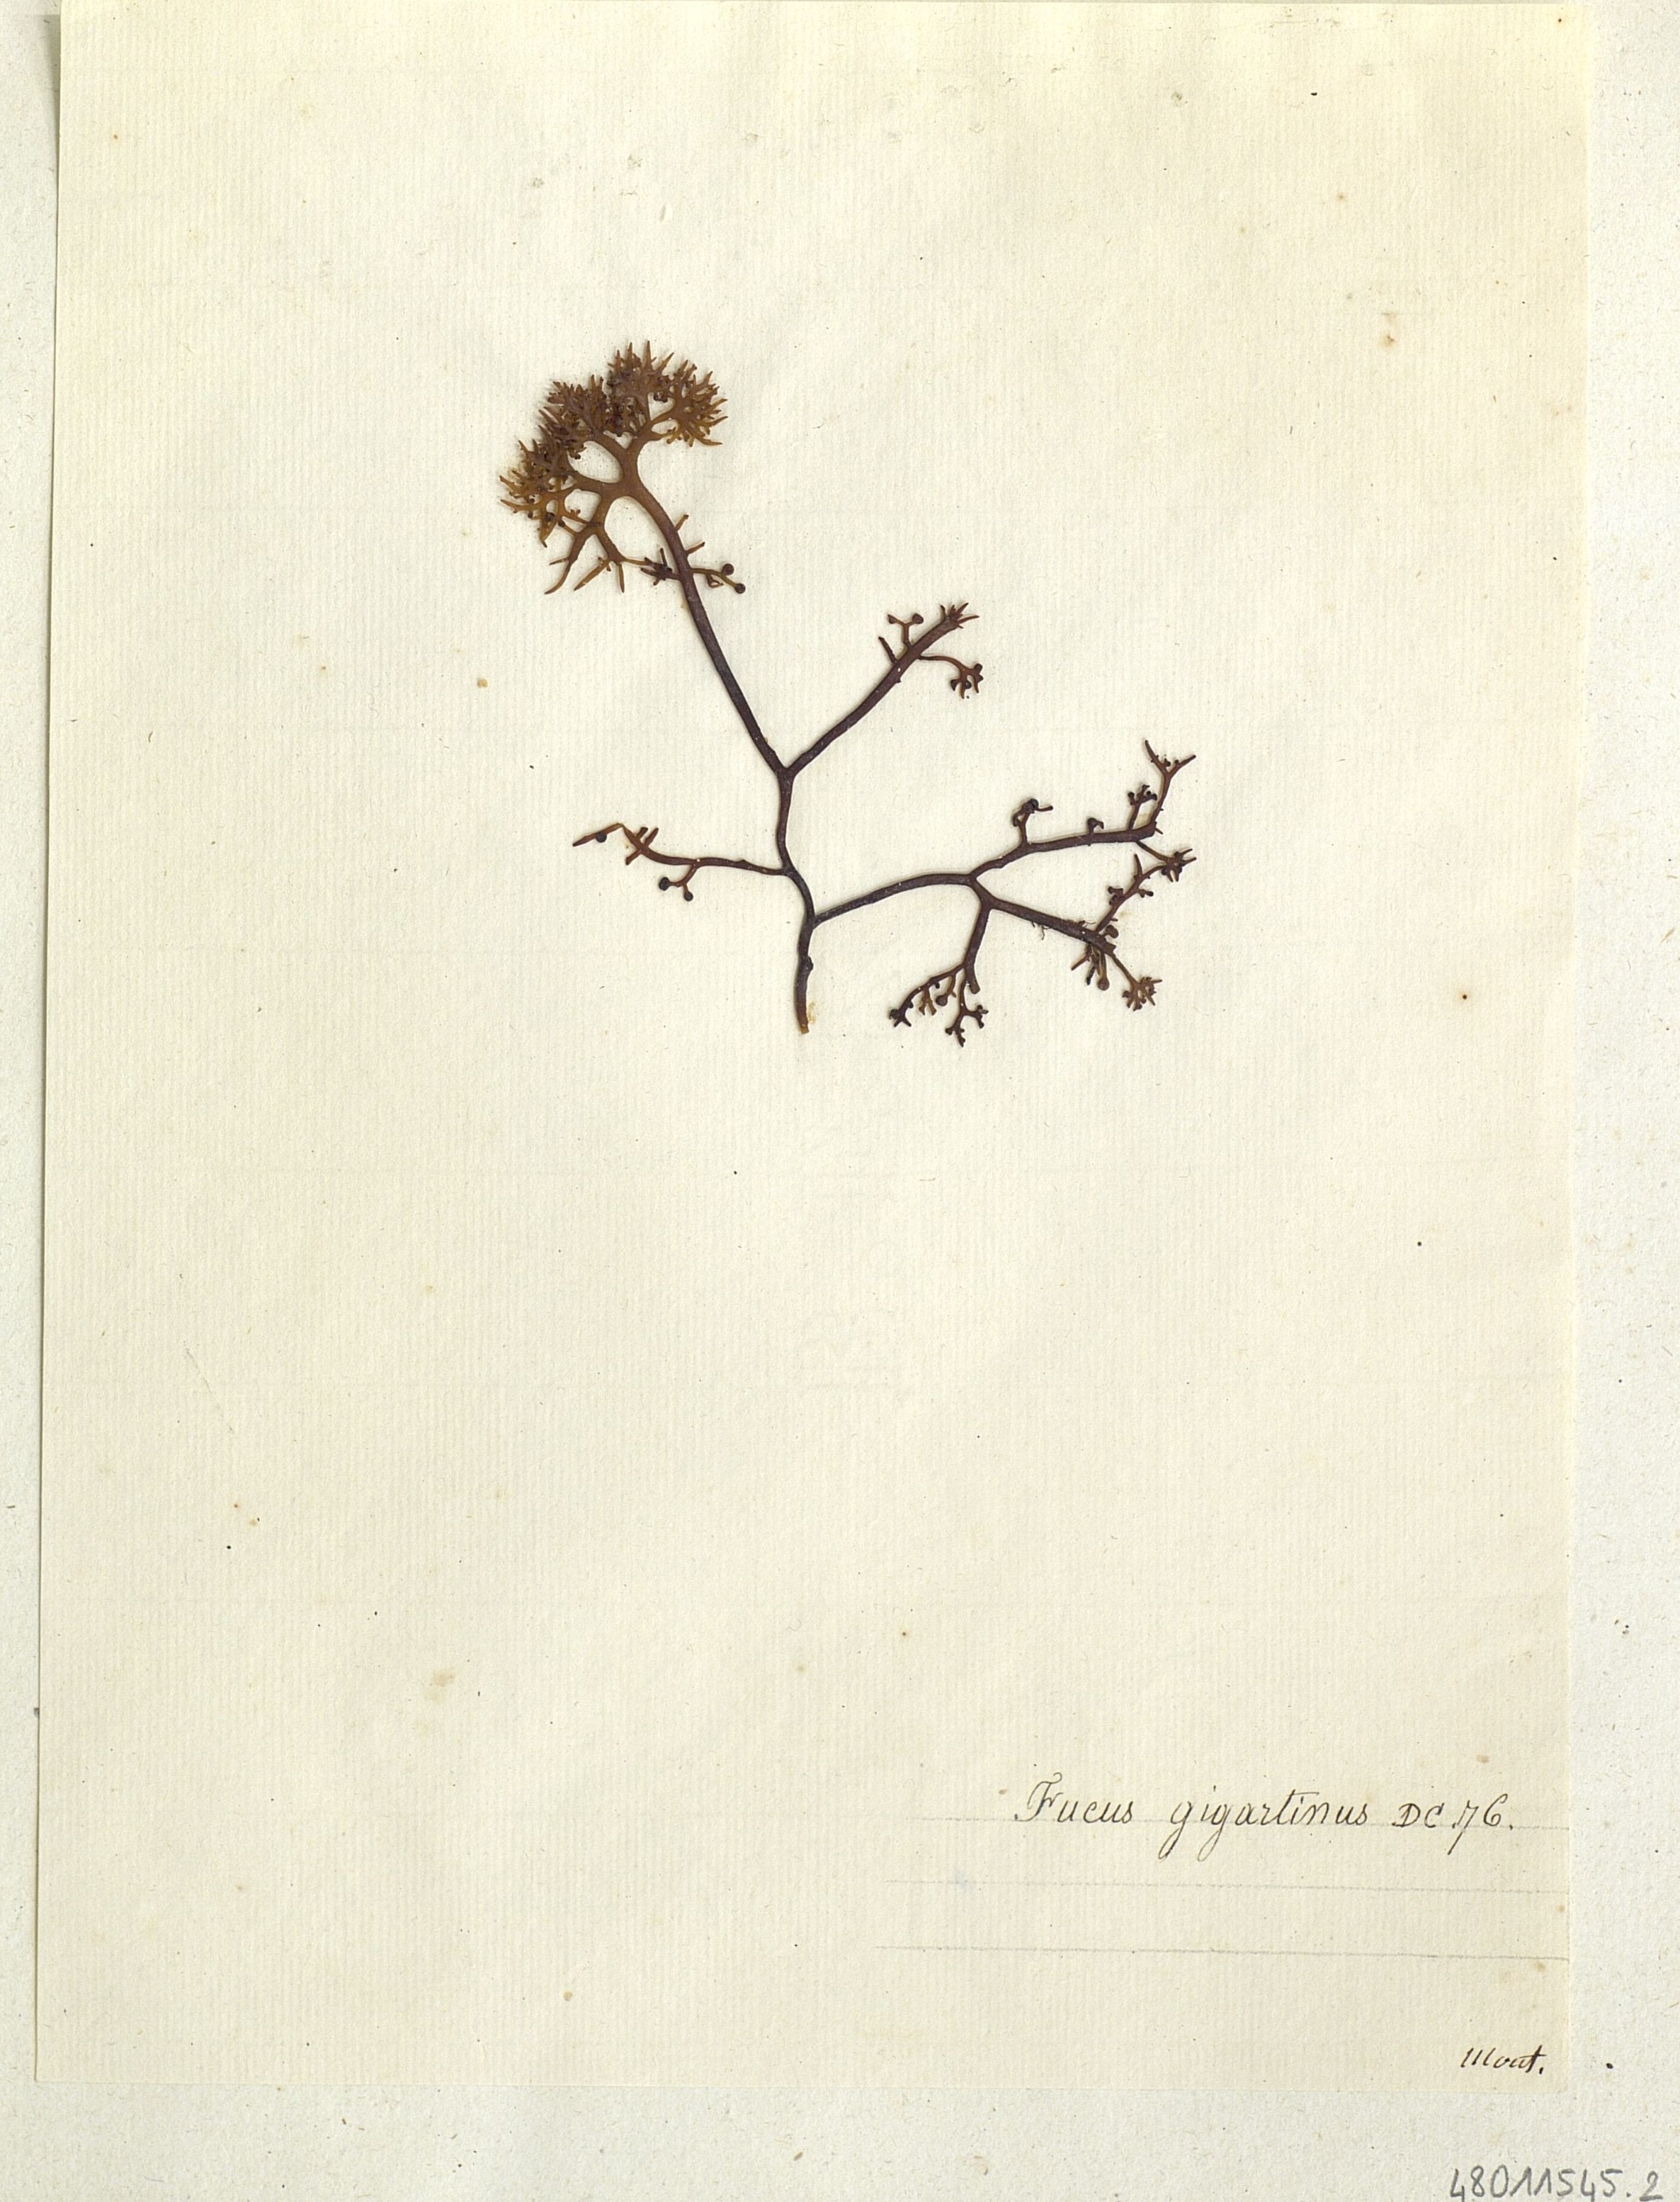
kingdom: Chromista
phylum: Ochrophyta
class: Phaeophyceae
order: Fucales
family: Fucaceae
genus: Fucus
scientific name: Fucus
